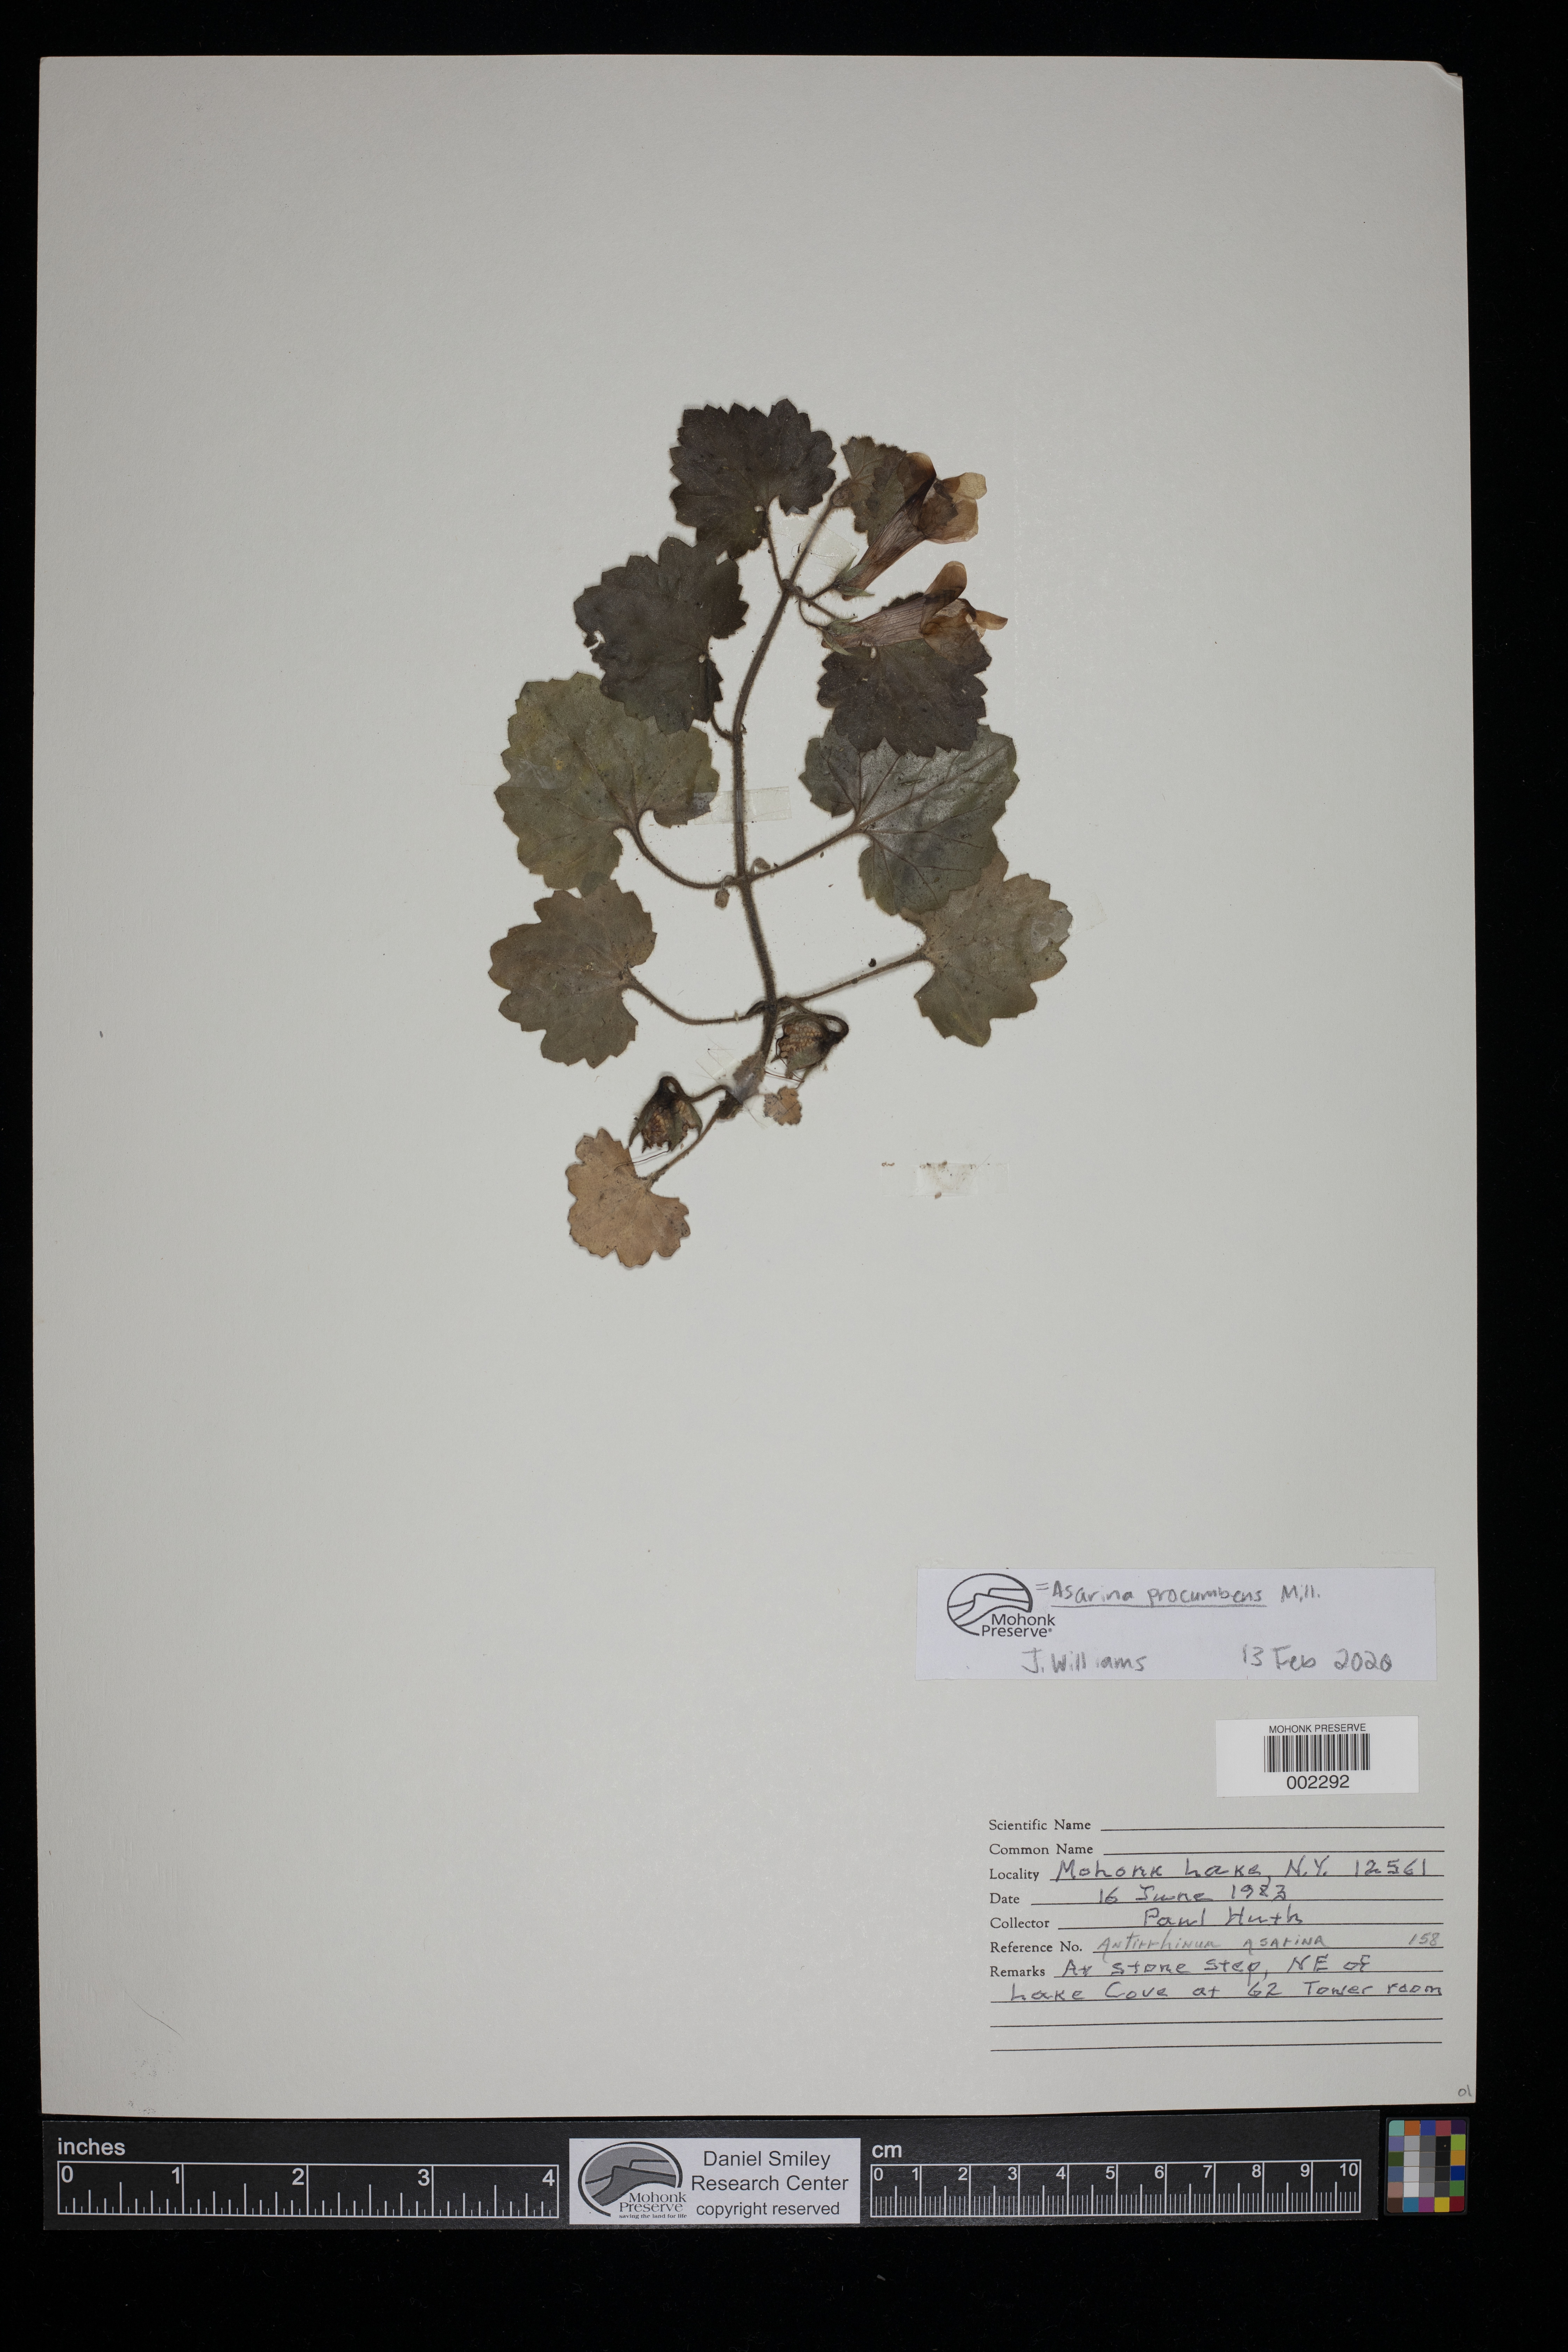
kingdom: Plantae
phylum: Tracheophyta
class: Magnoliopsida
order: Lamiales
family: Plantaginaceae
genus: Asarina
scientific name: Asarina procumbens
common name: Trailing snapdragon
